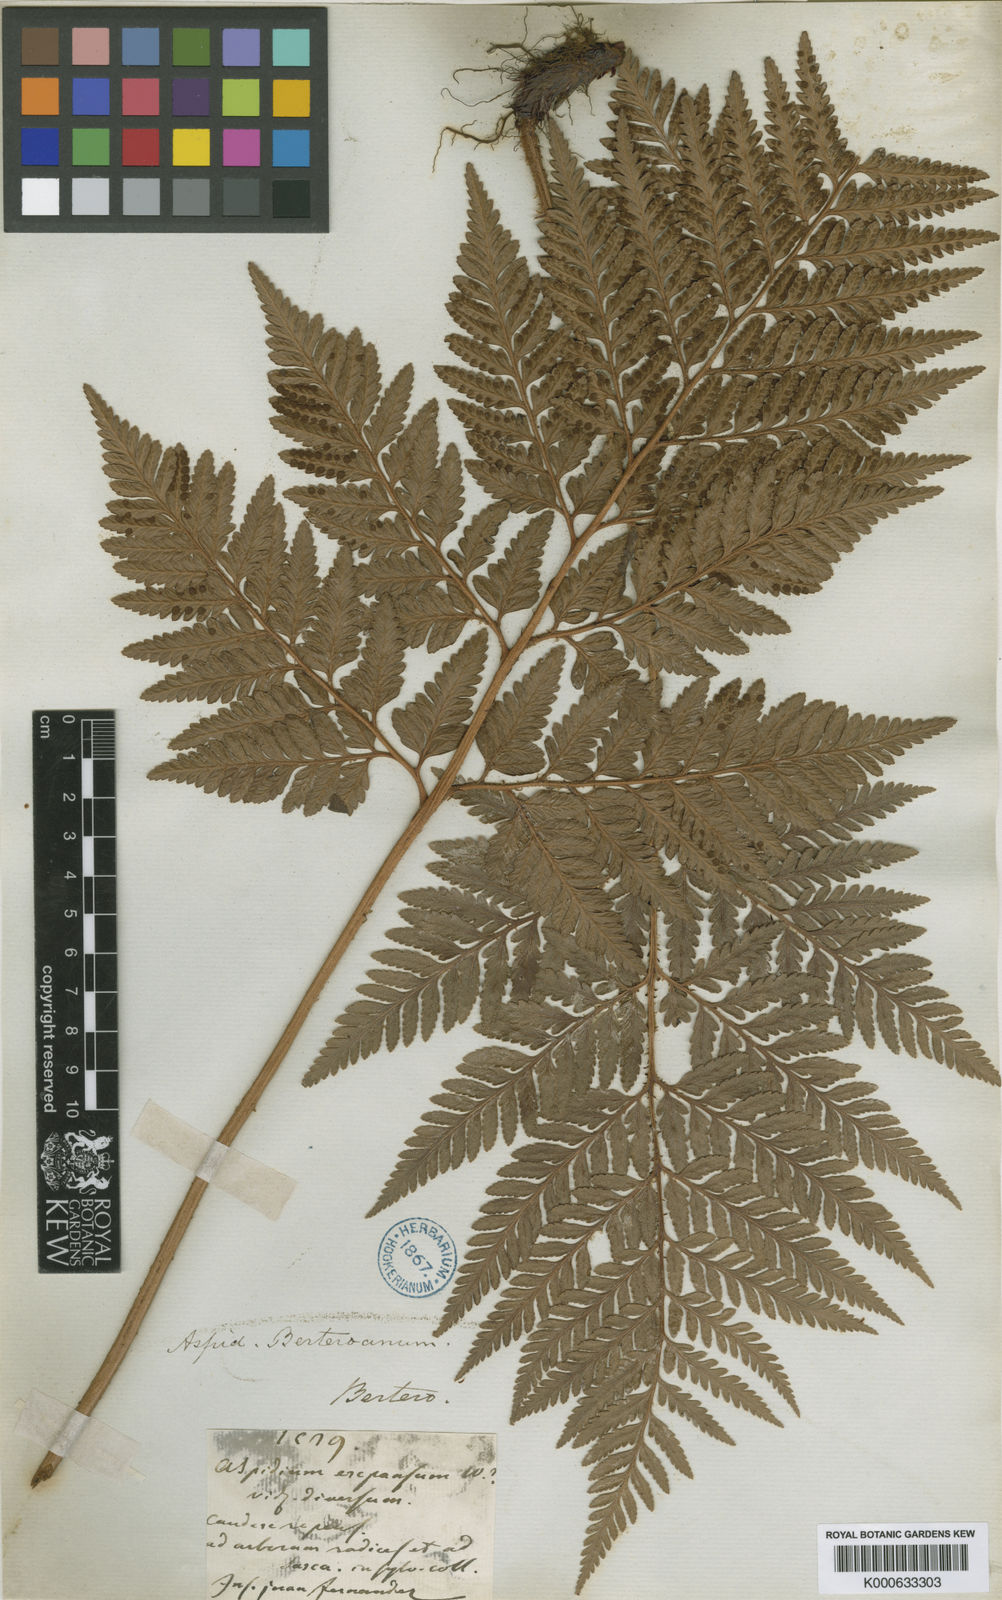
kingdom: Plantae
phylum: Tracheophyta
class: Polypodiopsida
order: Polypodiales
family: Dryopteridaceae
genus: Rumohra
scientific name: Rumohra berteroana
